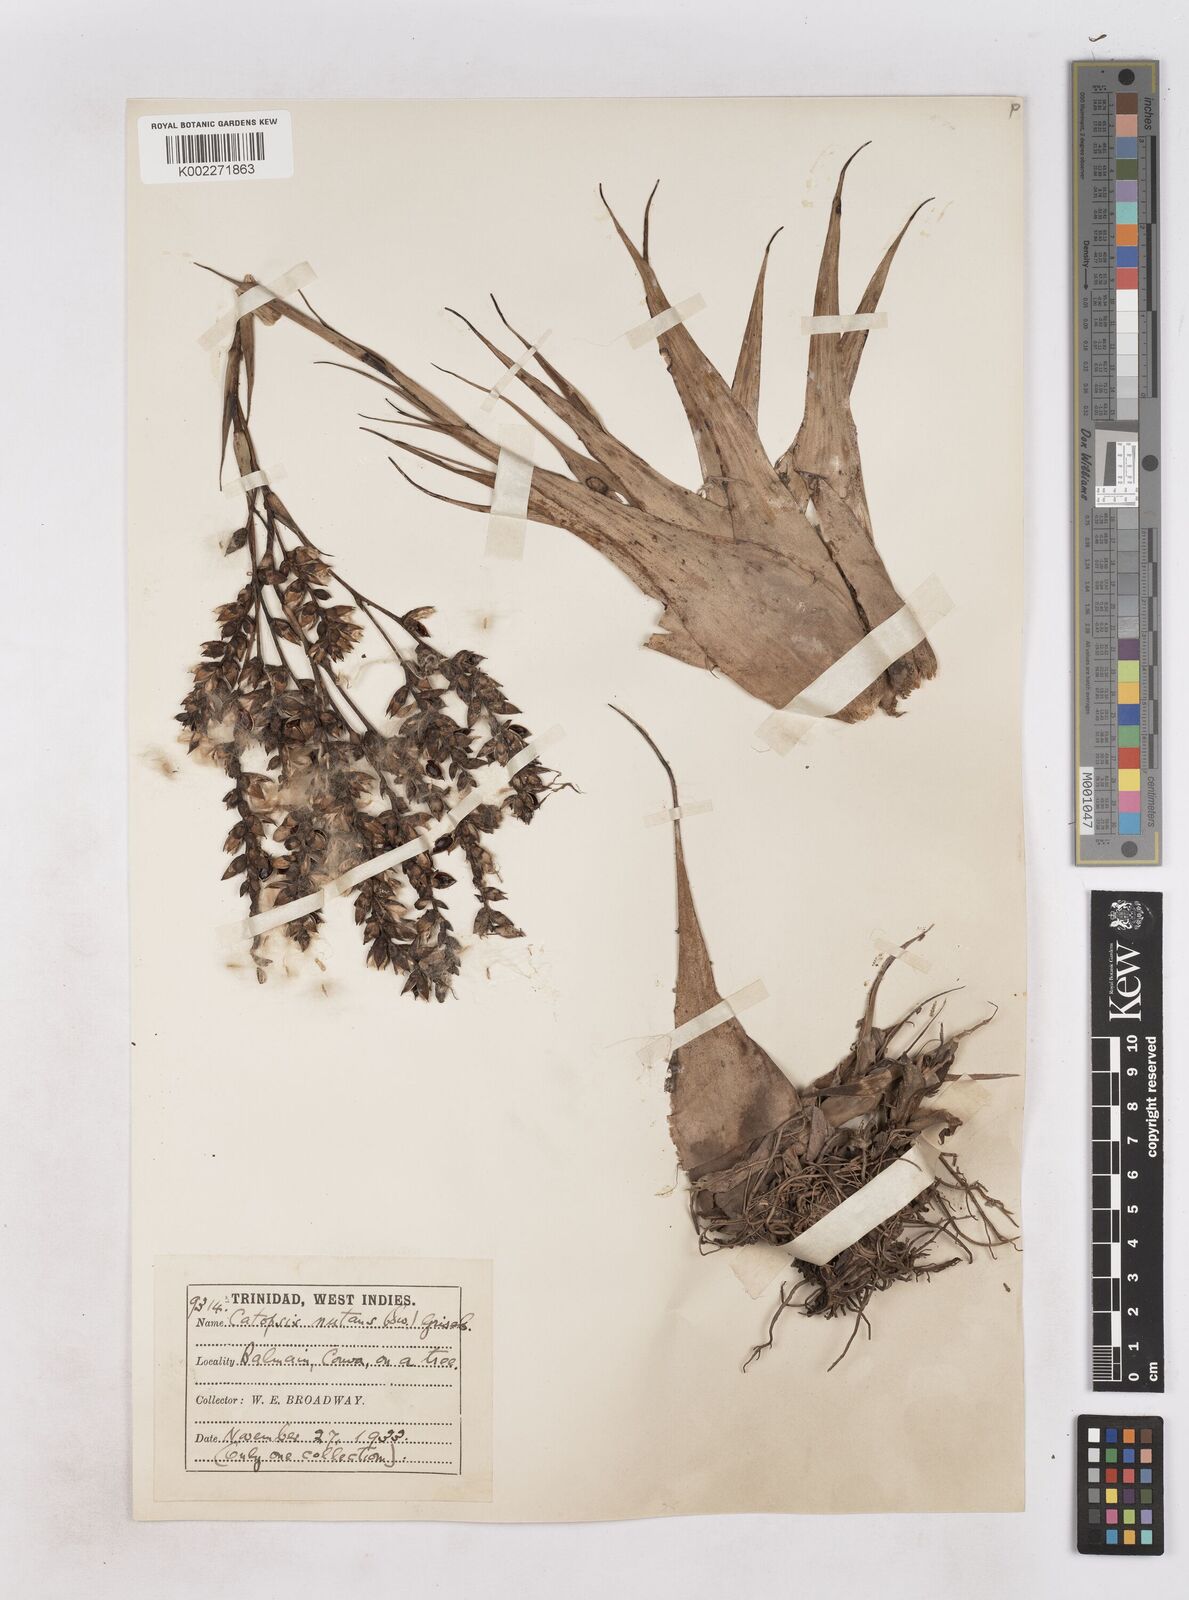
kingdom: Plantae
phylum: Tracheophyta
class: Liliopsida
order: Poales
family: Bromeliaceae
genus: Catopsis
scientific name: Catopsis nutans
